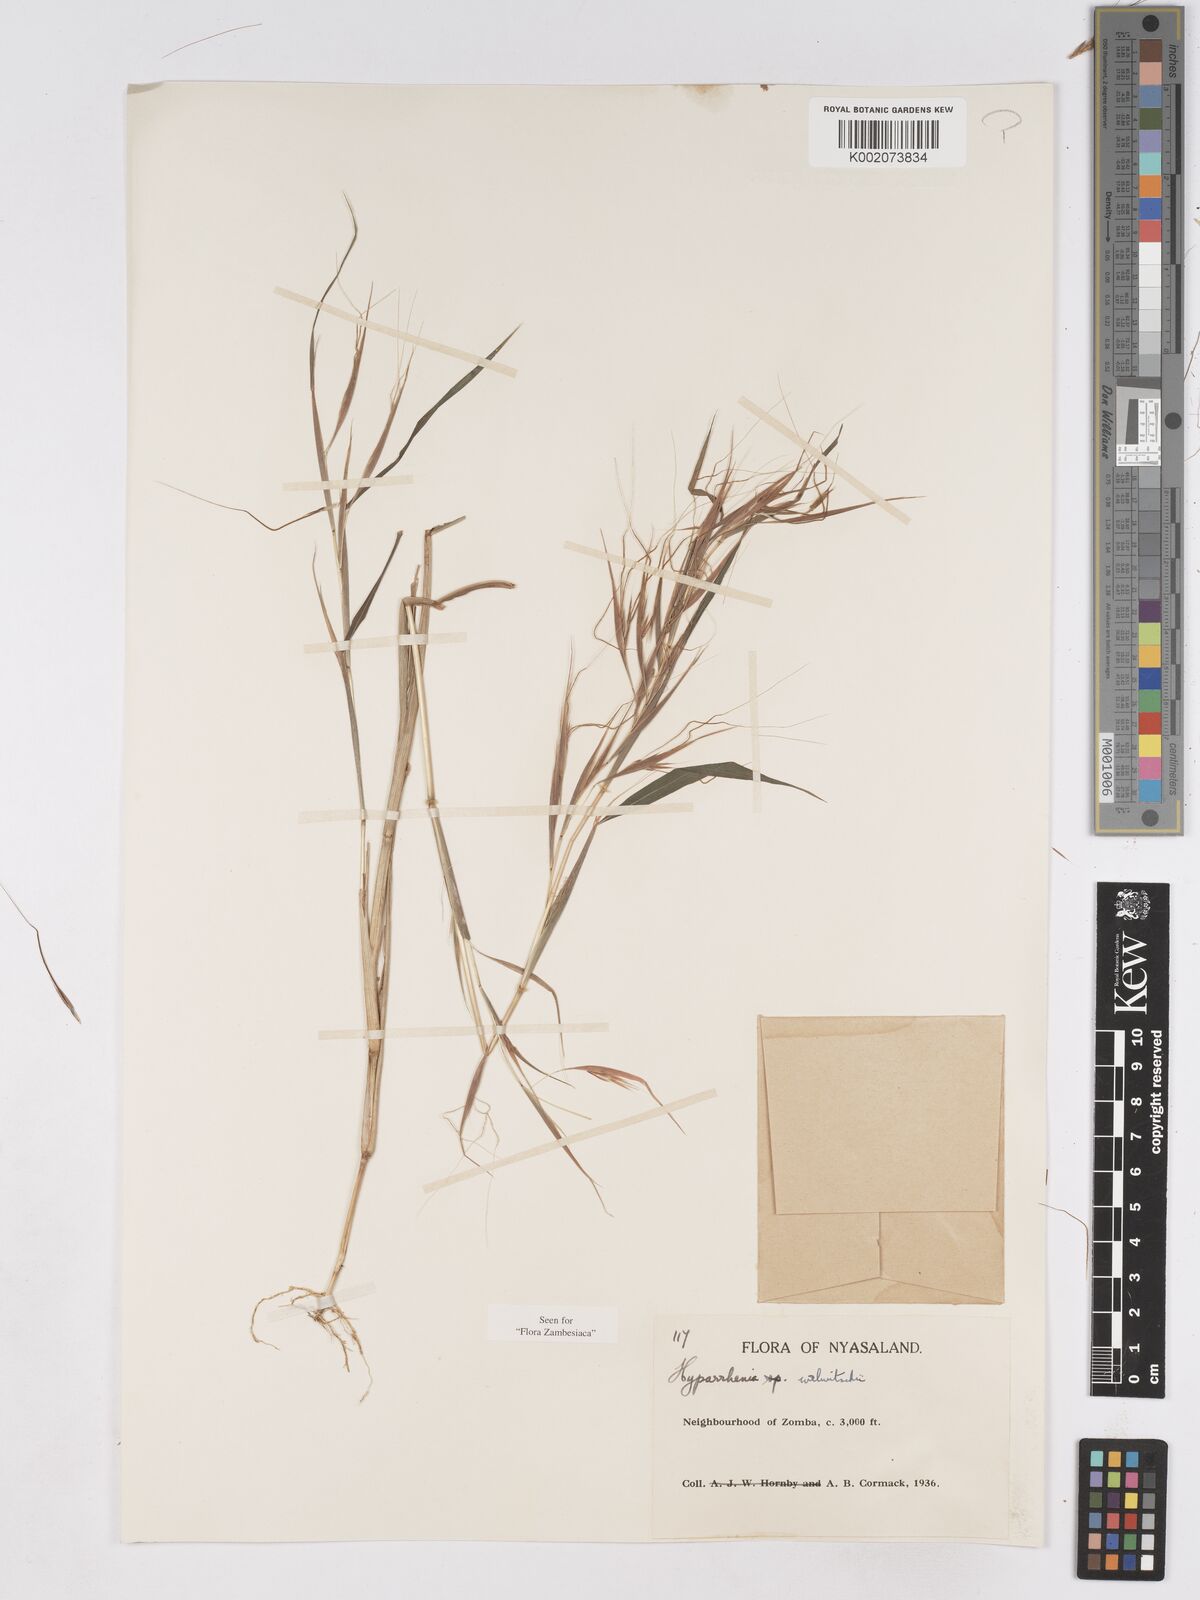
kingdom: Plantae
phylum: Tracheophyta
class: Liliopsida
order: Poales
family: Poaceae
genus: Hyparrhenia
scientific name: Hyparrhenia welwitschii
